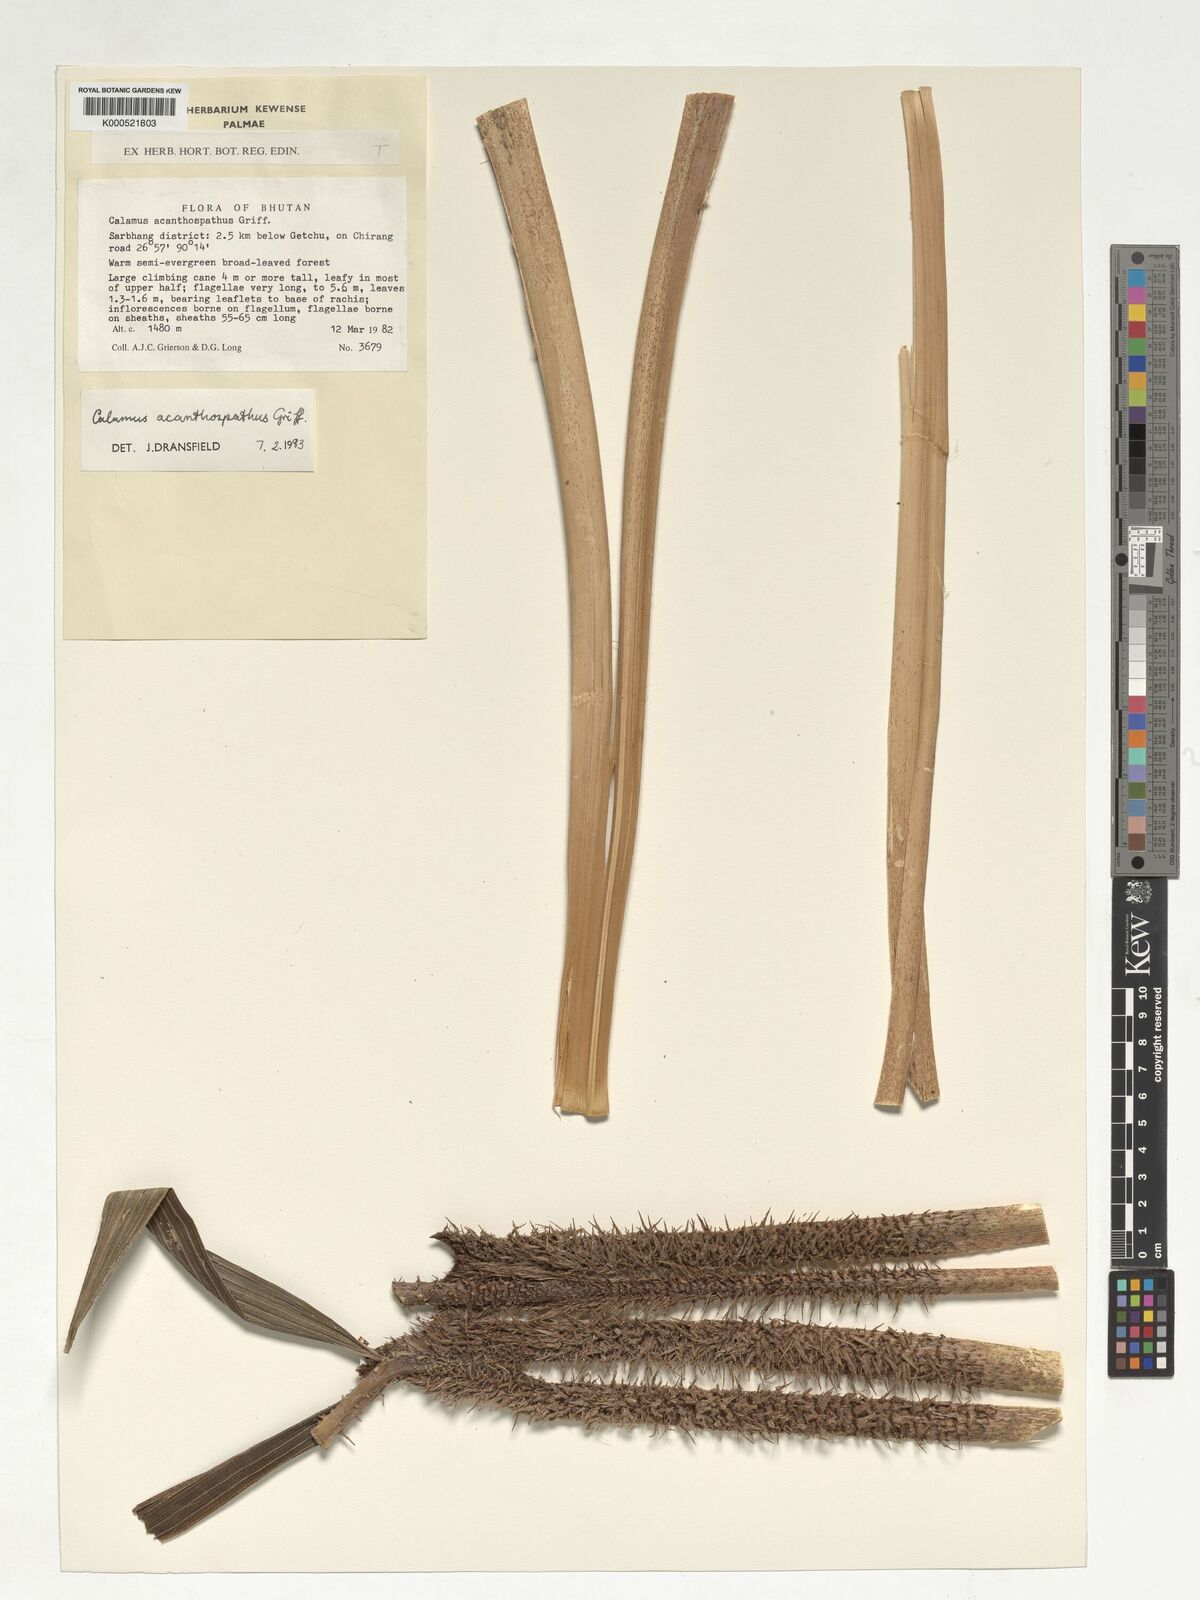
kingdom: Plantae
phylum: Tracheophyta
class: Liliopsida
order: Arecales
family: Arecaceae
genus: Calamus
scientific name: Calamus acanthospathus
